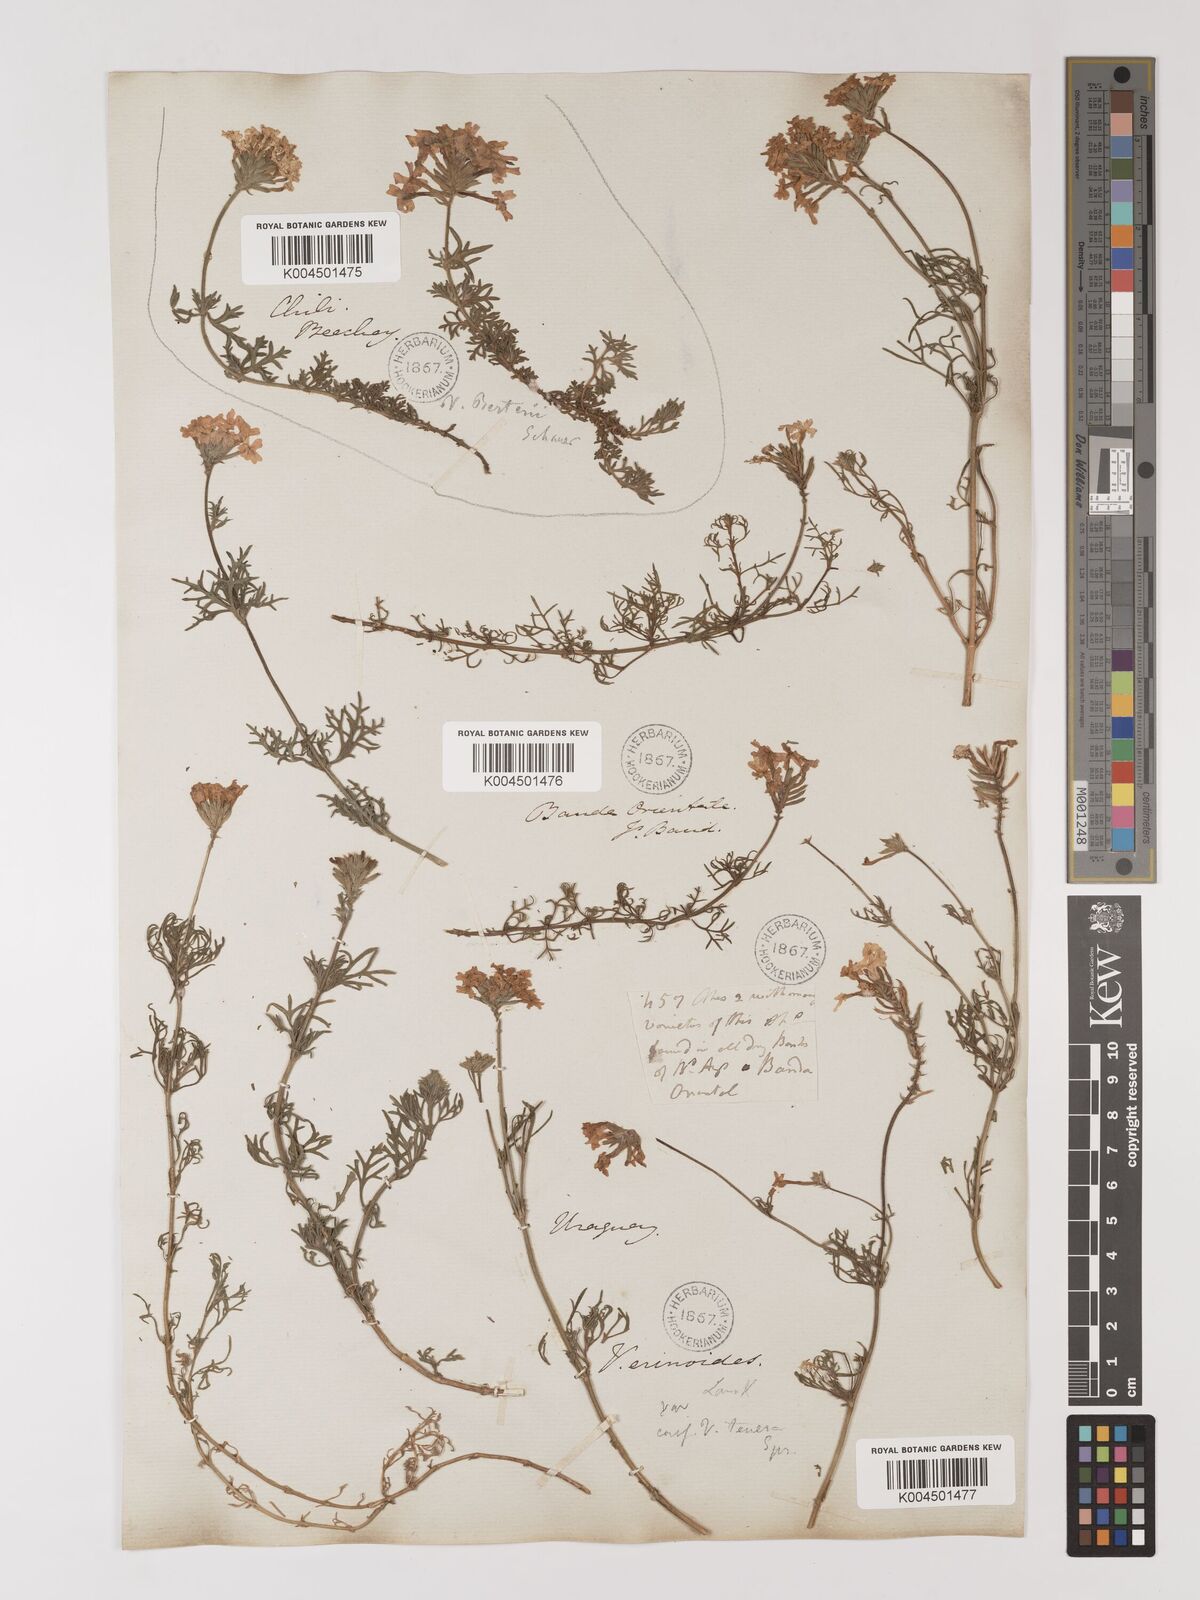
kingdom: Plantae
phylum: Tracheophyta
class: Magnoliopsida
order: Lamiales
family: Verbenaceae
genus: Verbena
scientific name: Verbena tenera
